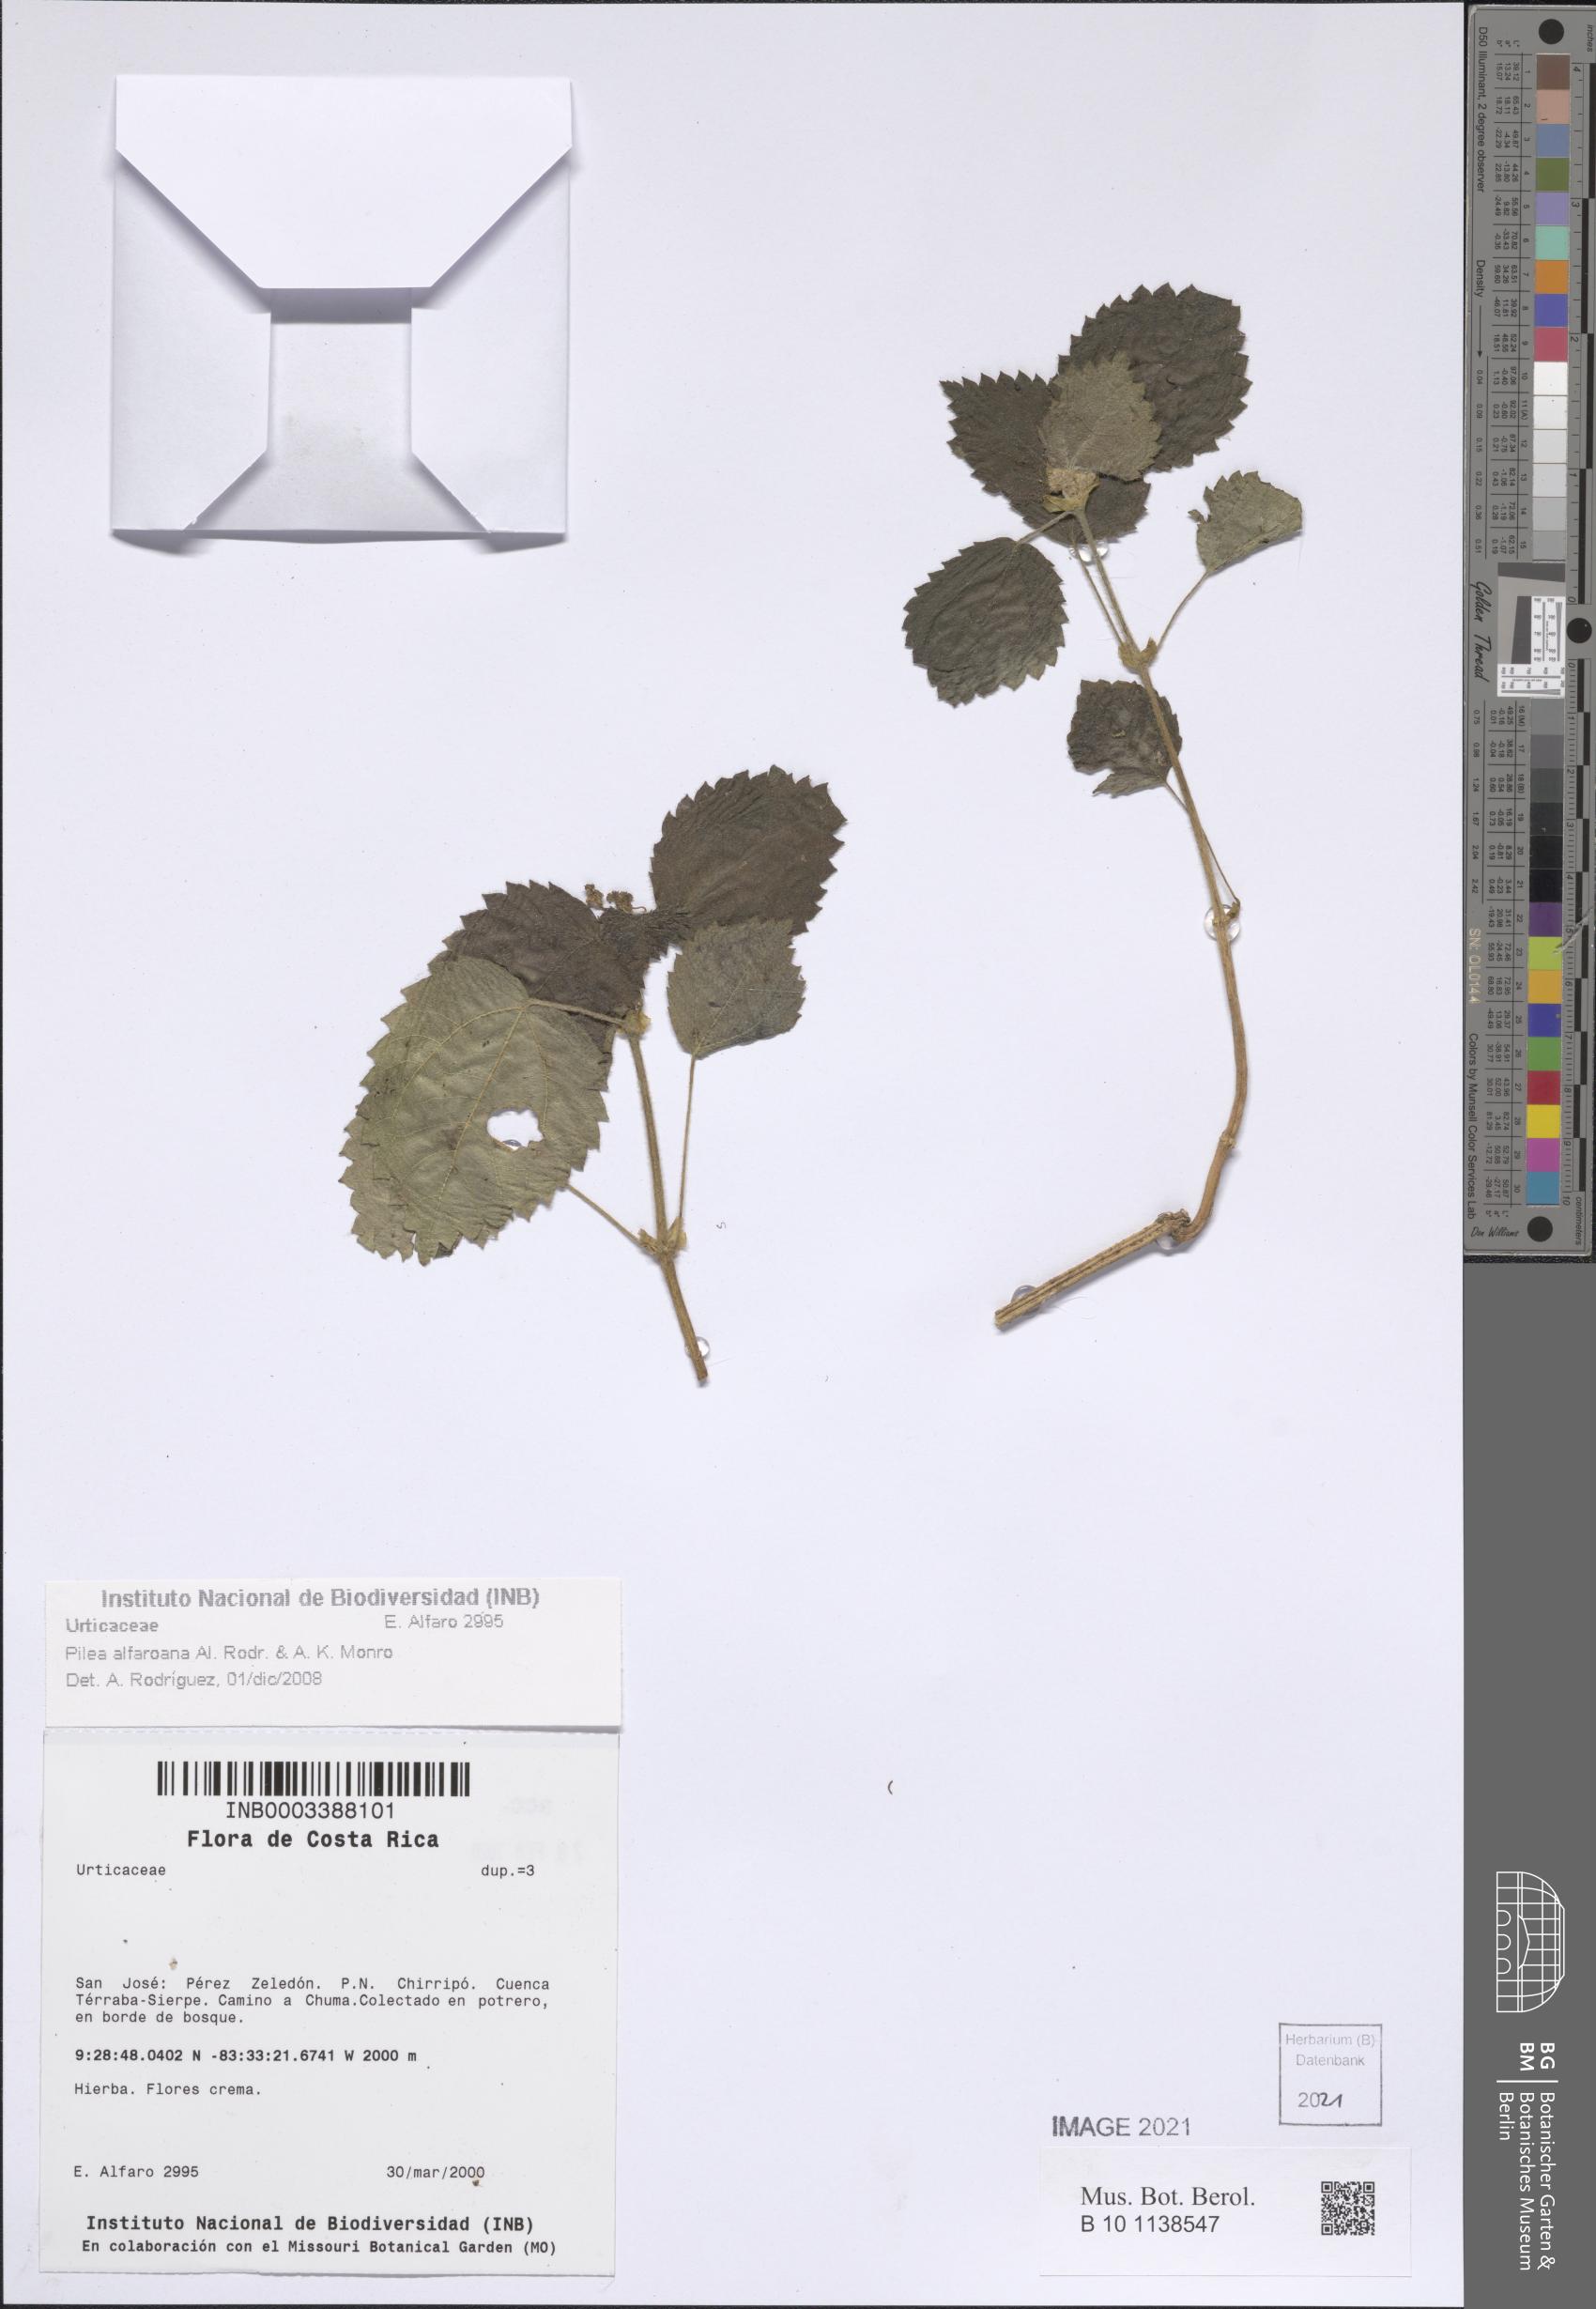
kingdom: Plantae
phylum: Tracheophyta
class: Magnoliopsida
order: Rosales
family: Urticaceae
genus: Pilea
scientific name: Pilea alfaroana
